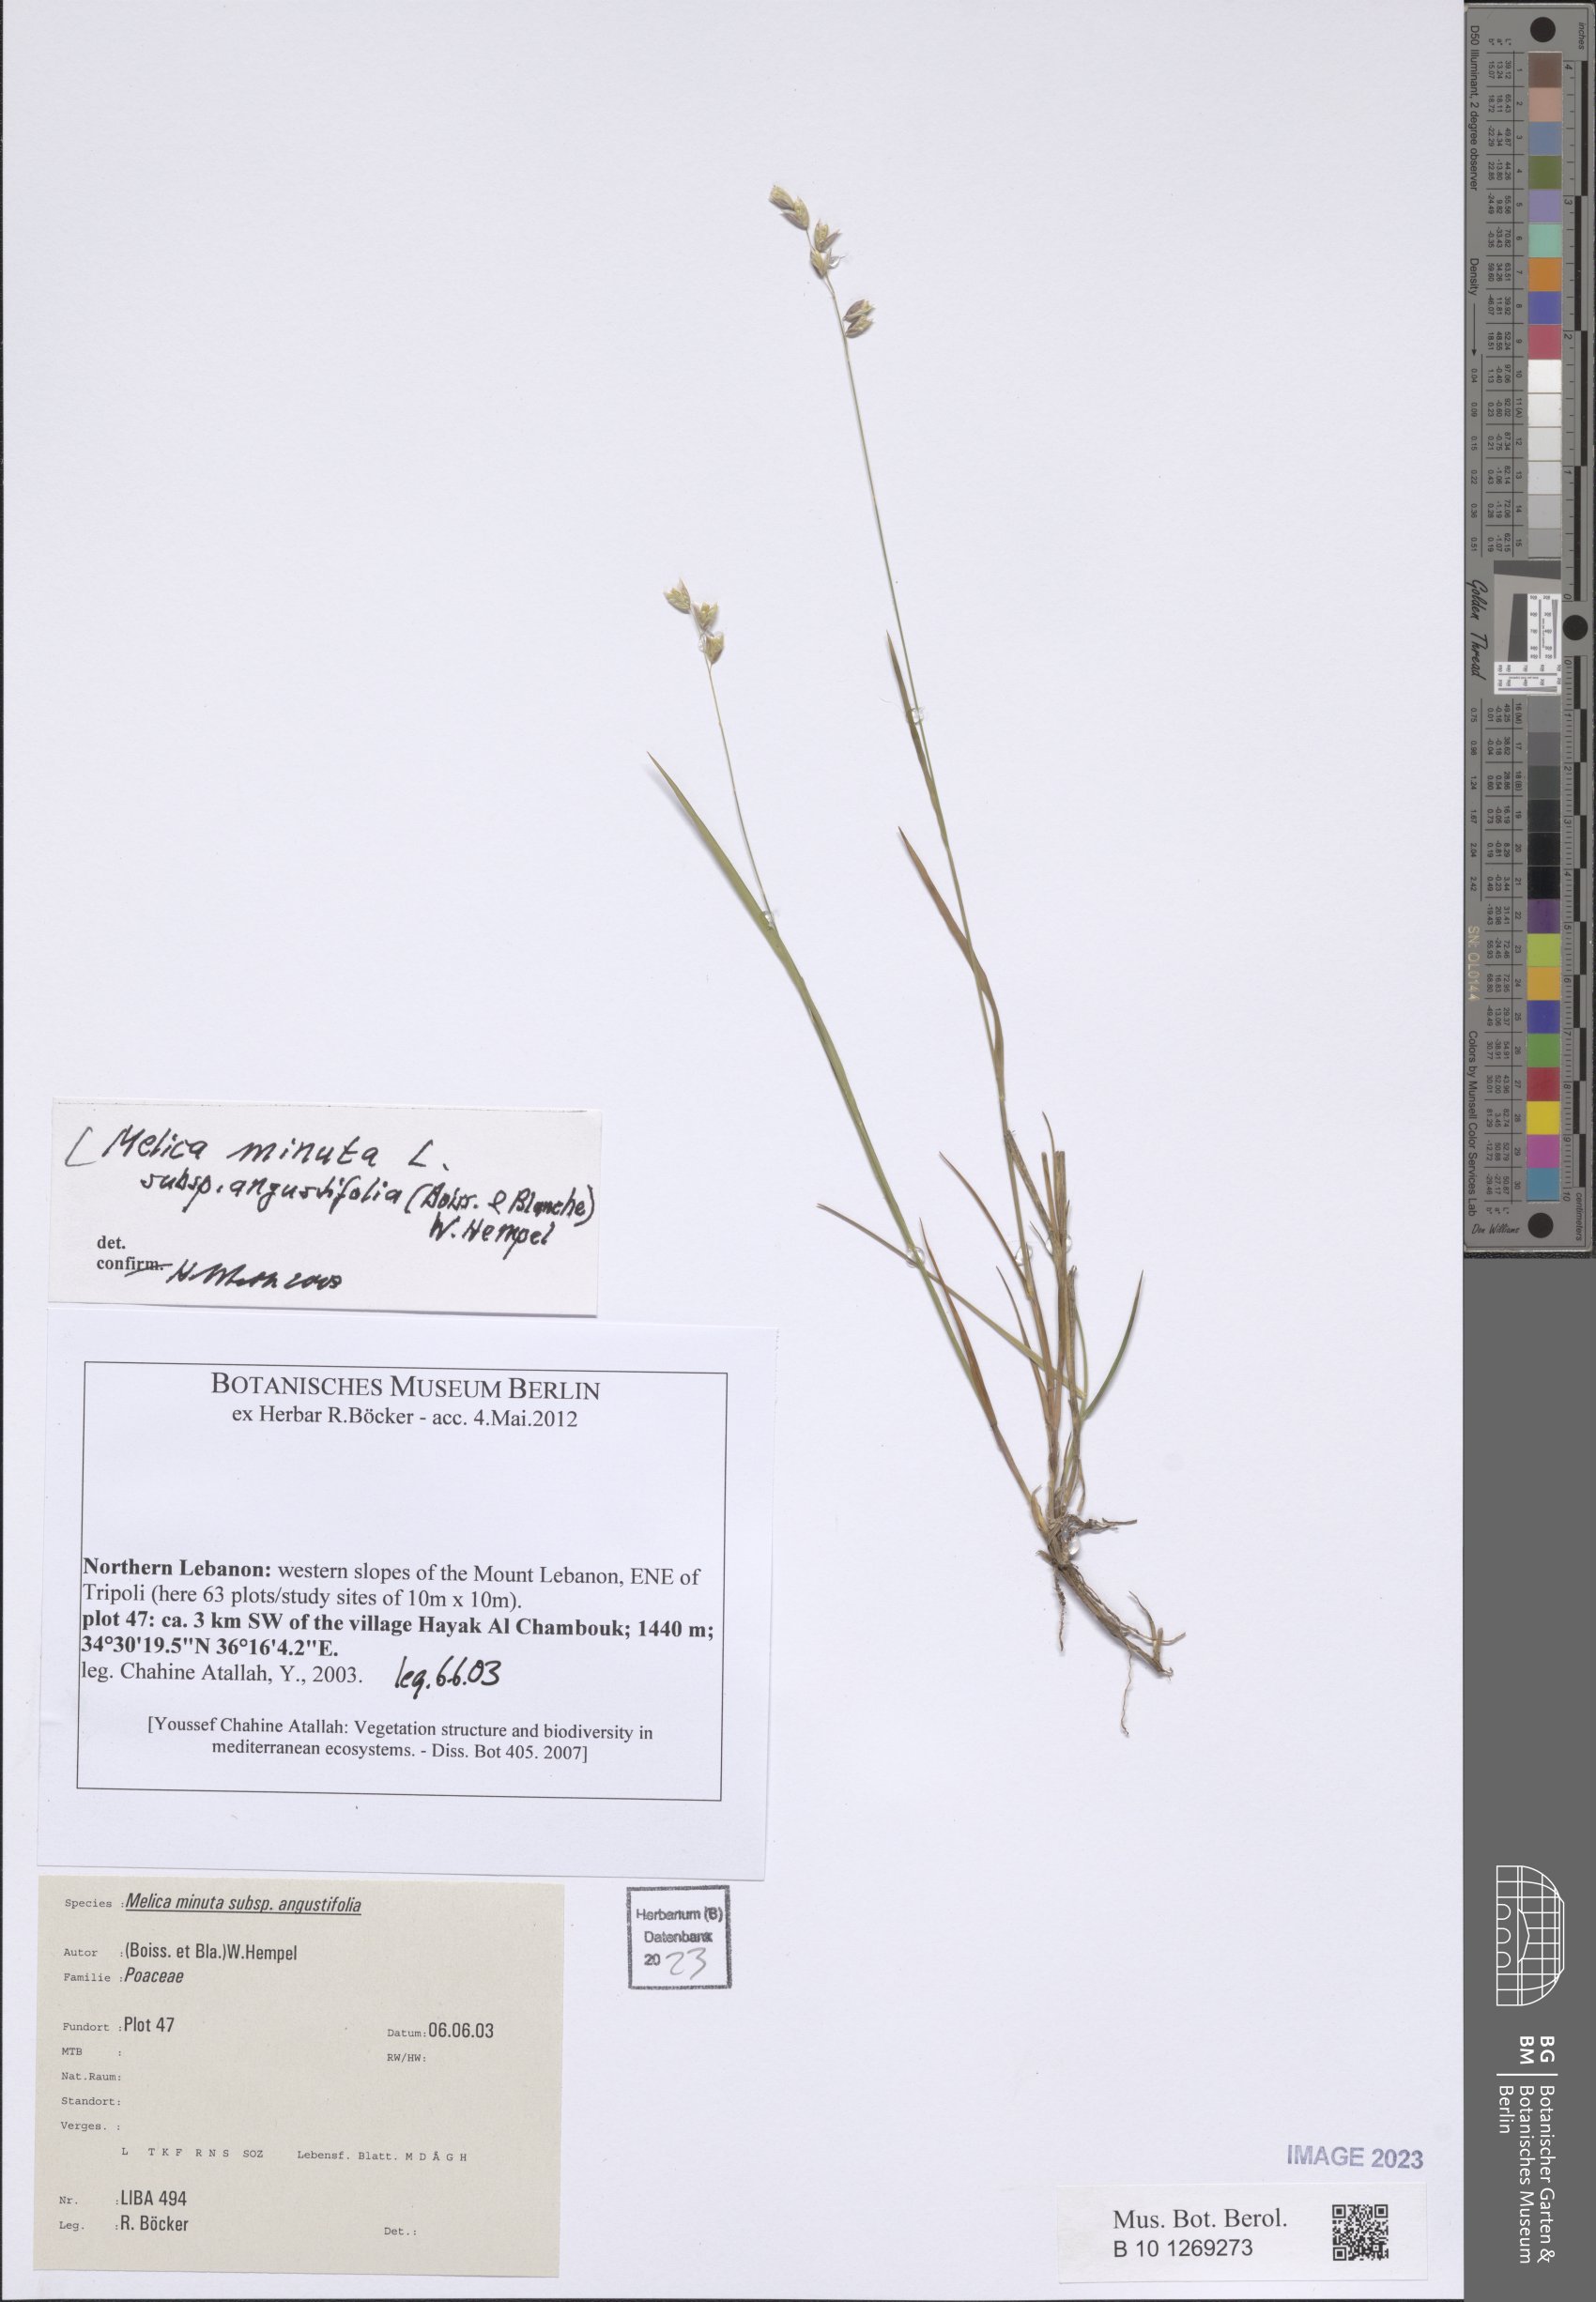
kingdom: Plantae
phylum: Tracheophyta
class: Liliopsida
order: Poales
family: Poaceae
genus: Melica
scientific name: Melica eligulata
